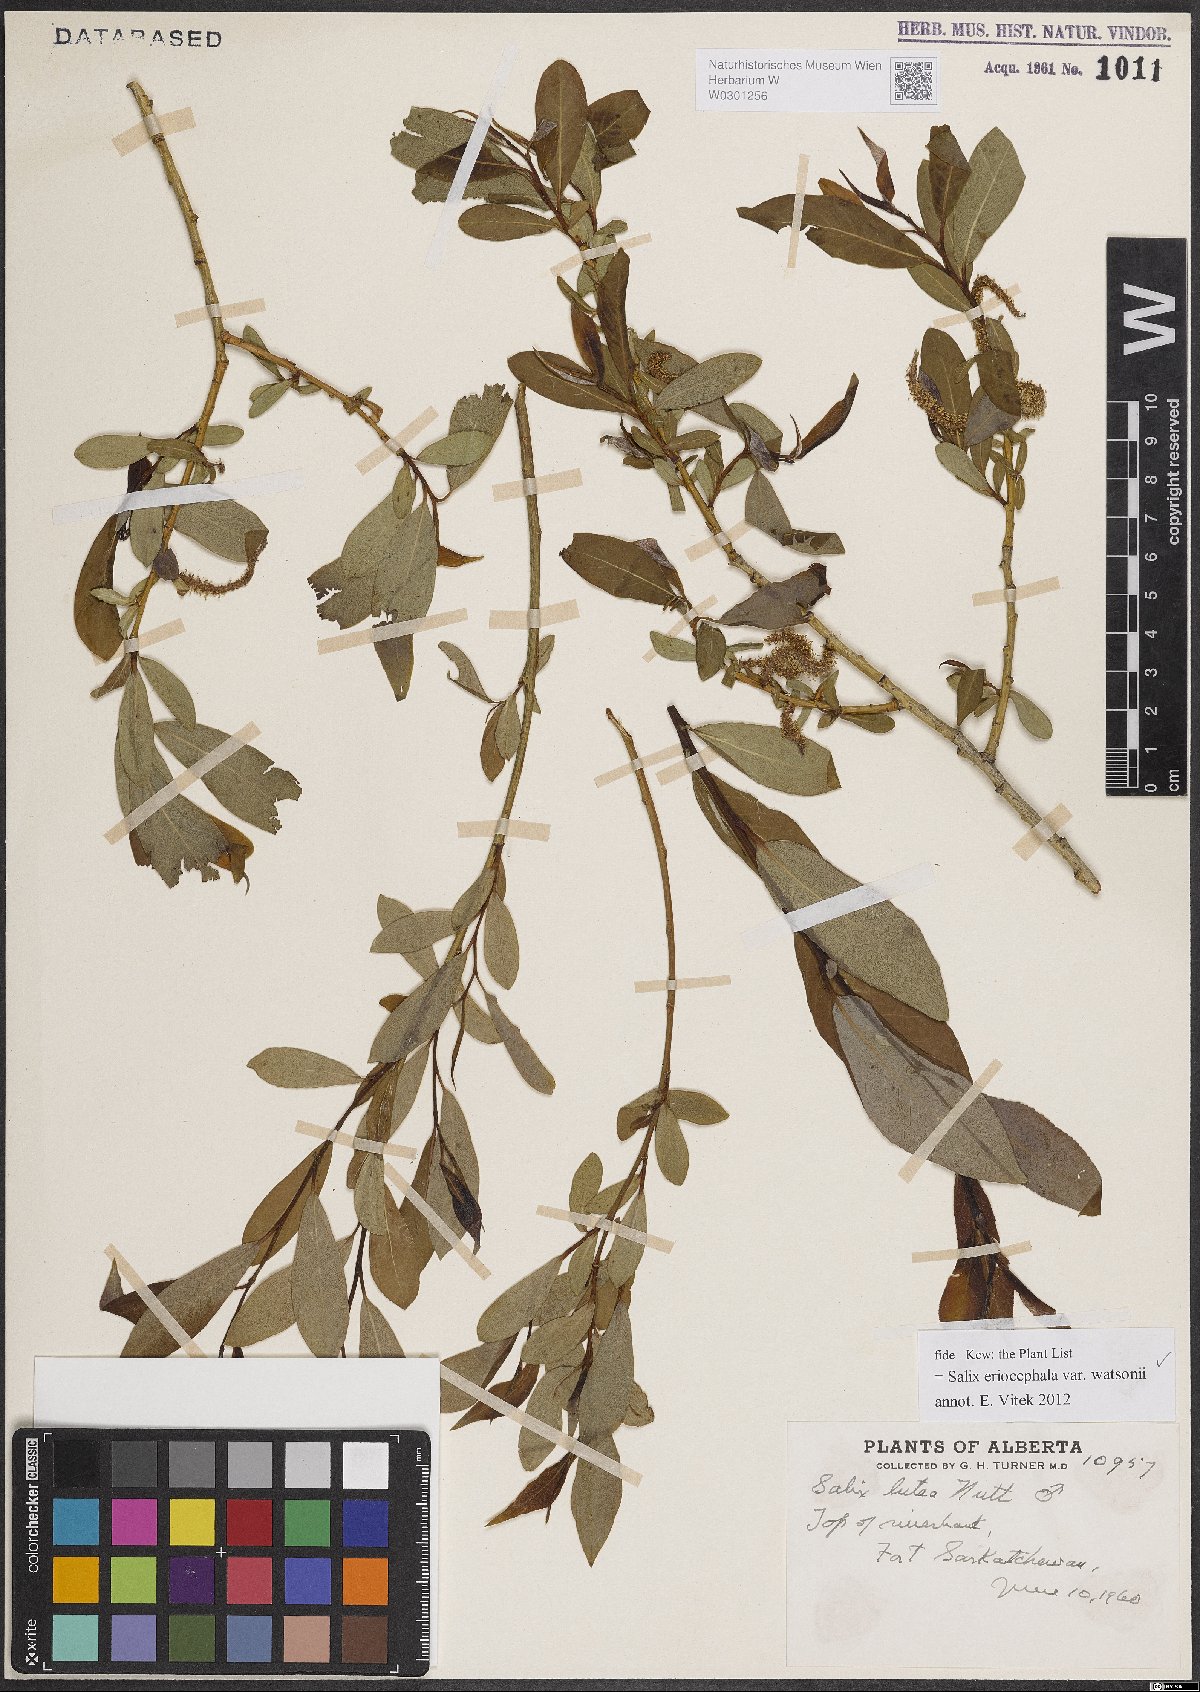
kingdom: Plantae
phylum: Tracheophyta
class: Magnoliopsida
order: Malpighiales
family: Salicaceae
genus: Salix
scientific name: Salix lutea
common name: Yellow willow
